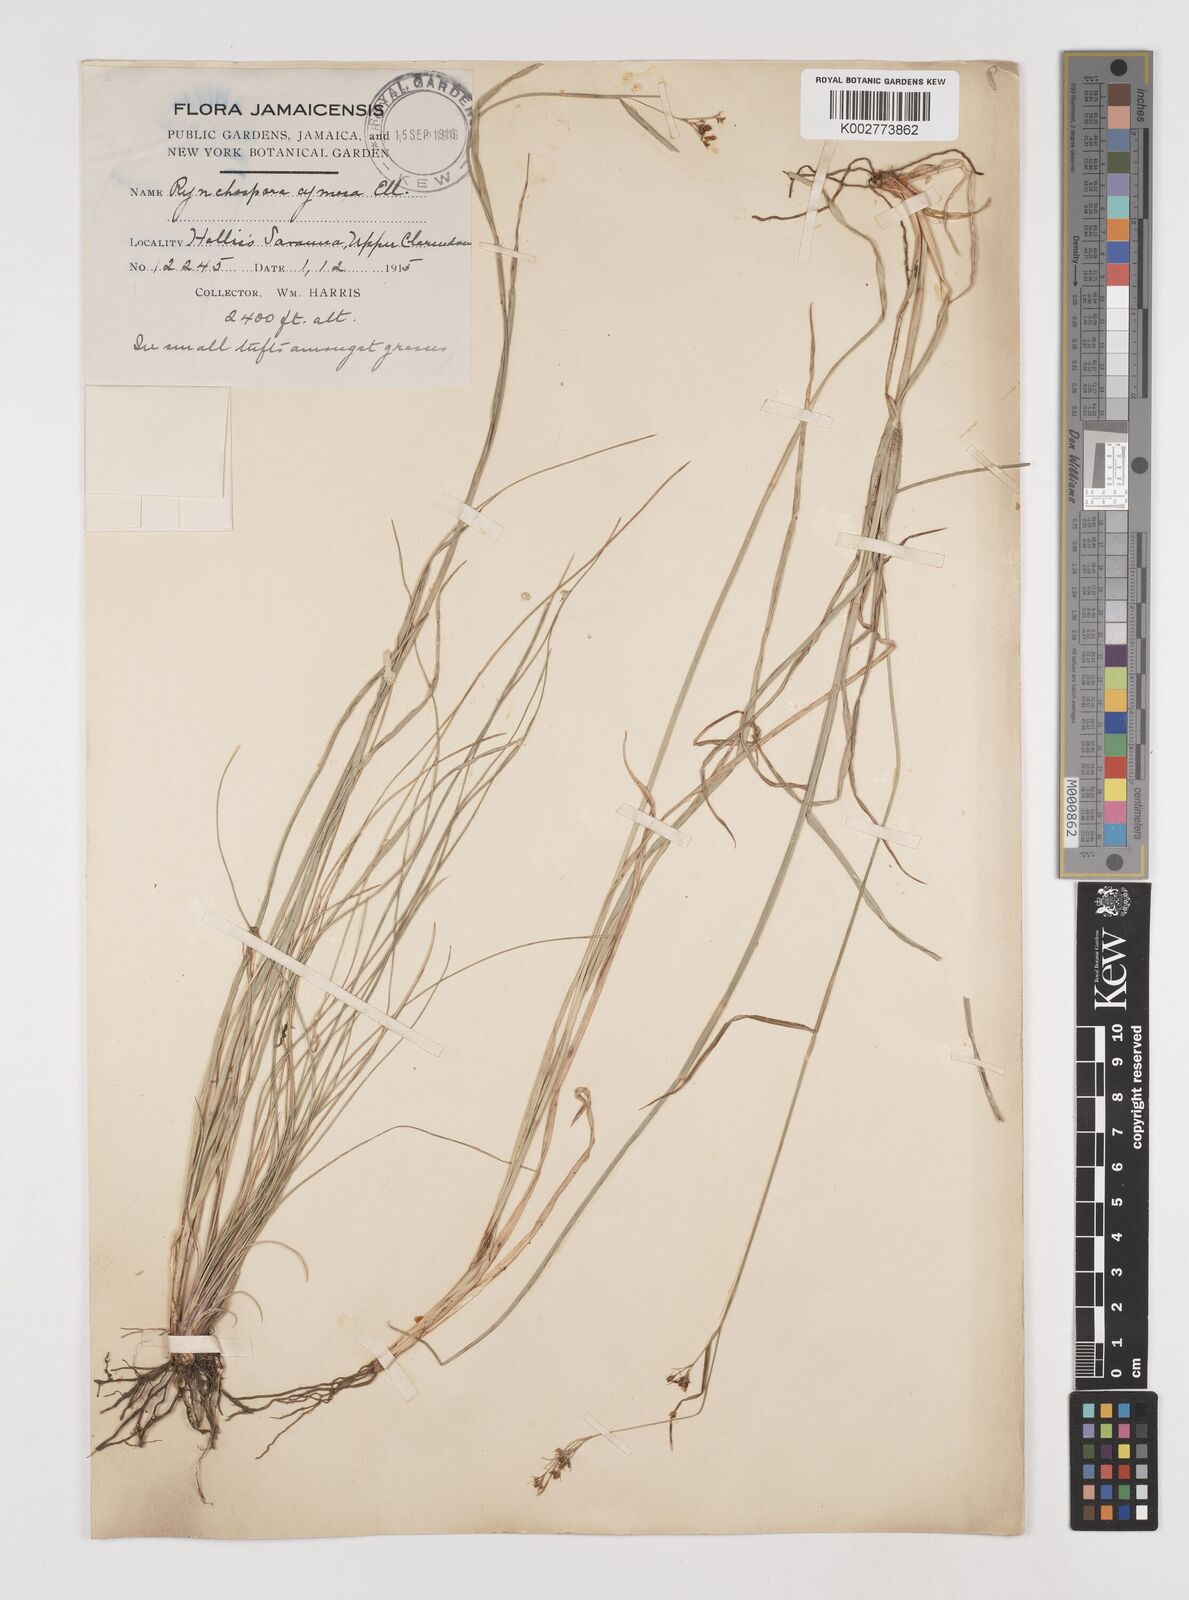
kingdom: Plantae
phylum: Tracheophyta
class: Liliopsida
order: Poales
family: Cyperaceae
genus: Scirpus
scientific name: Scirpus polyphyllus
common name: Leafy bulrush
